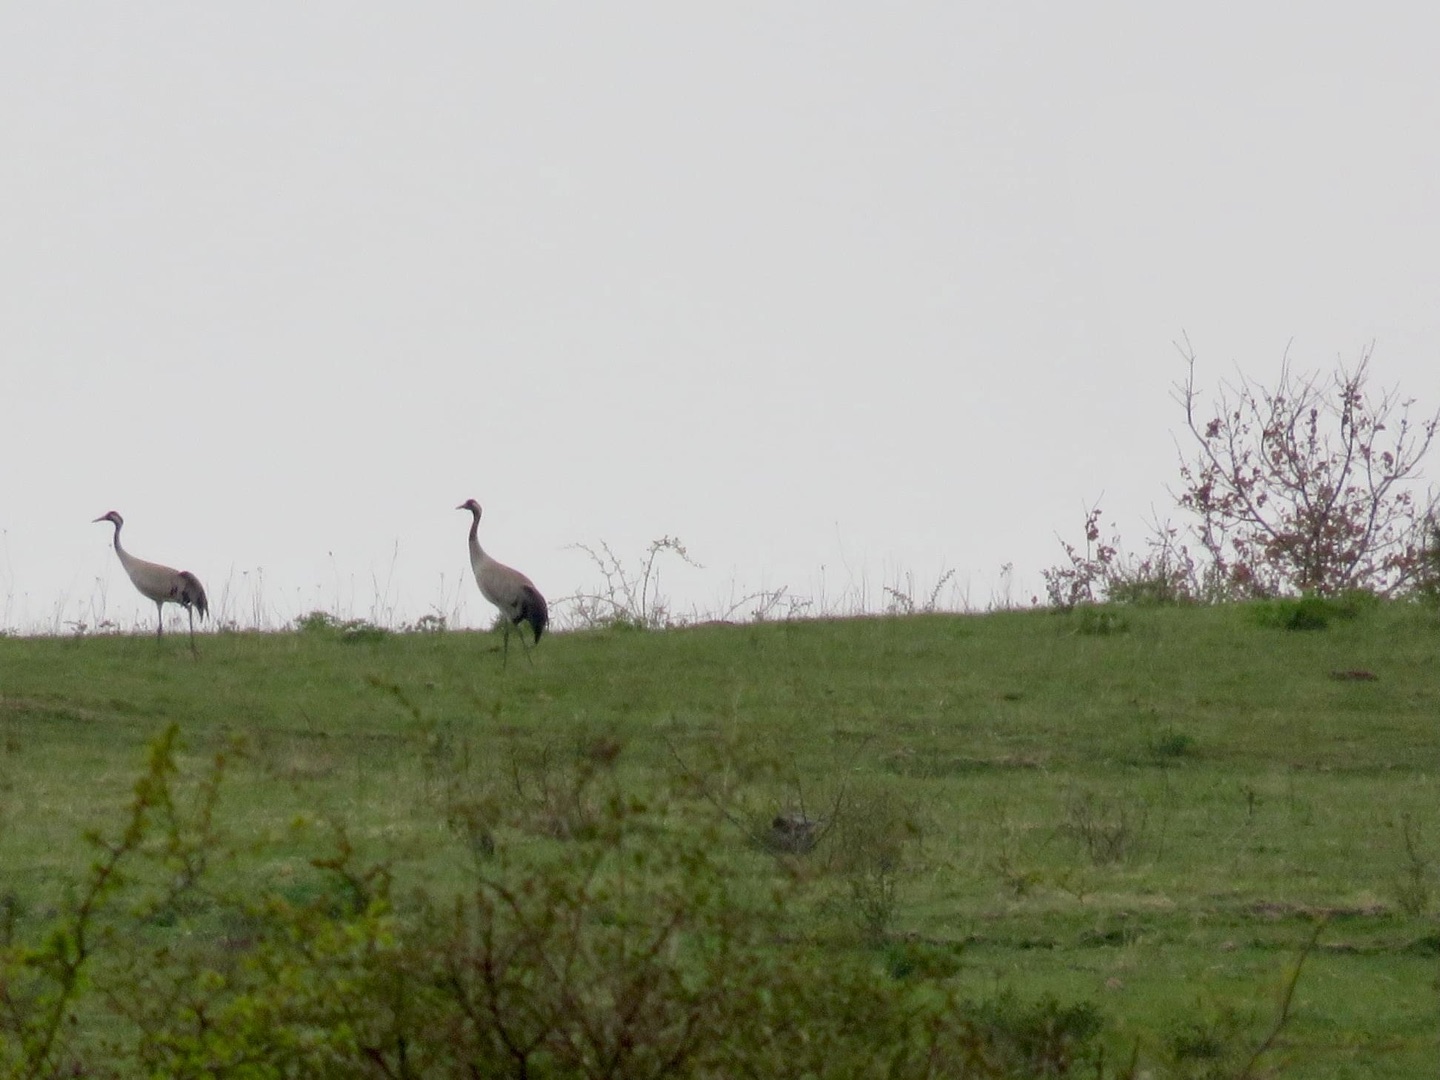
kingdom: Animalia
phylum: Chordata
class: Aves
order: Gruiformes
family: Gruidae
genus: Grus
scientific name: Grus grus
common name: Trane
